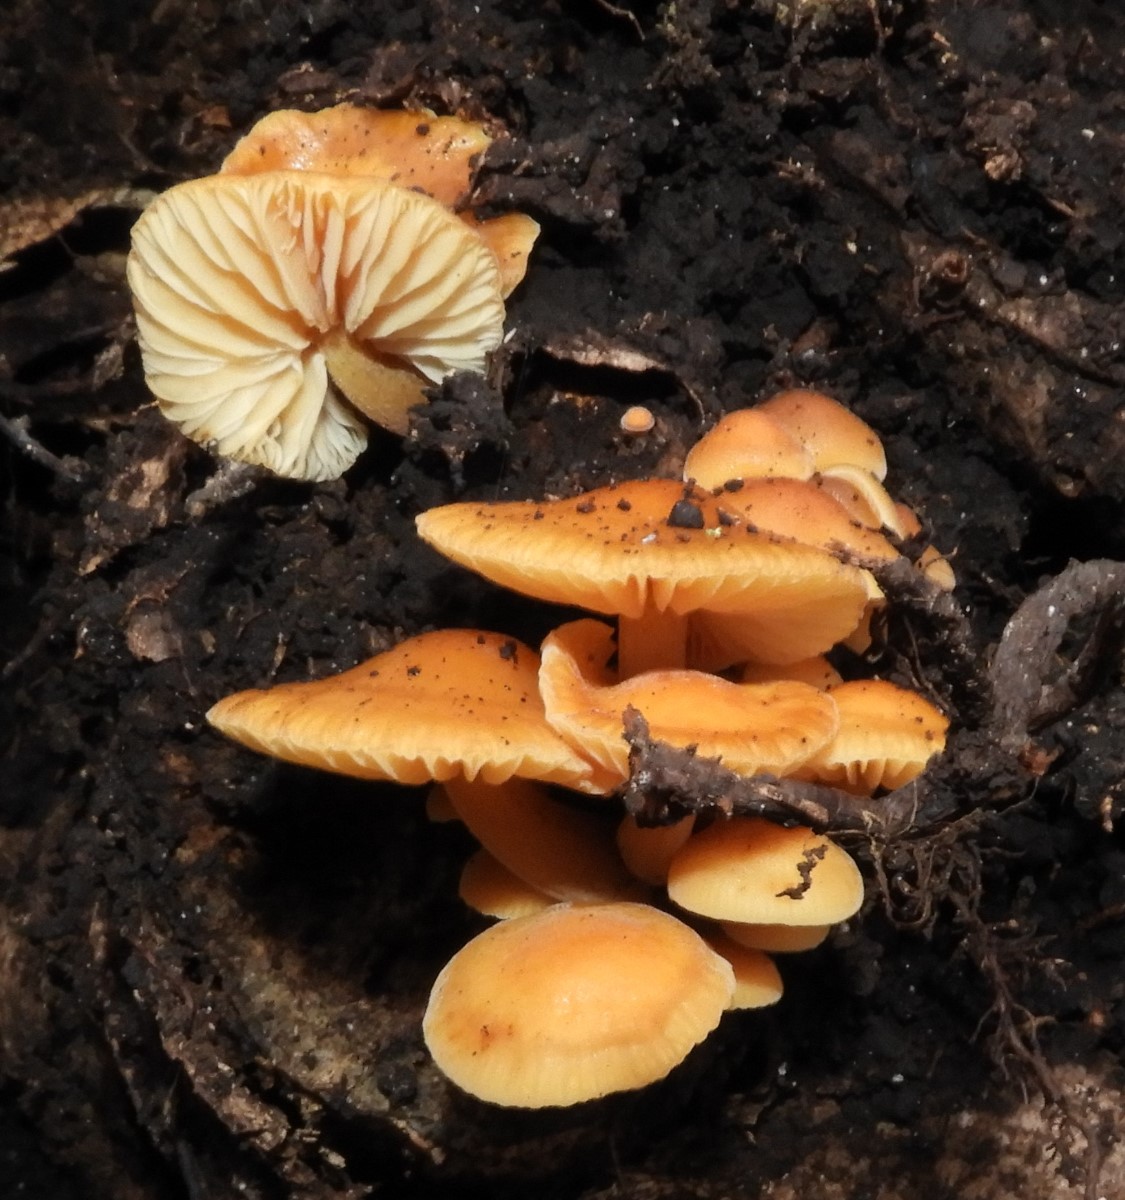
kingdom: Fungi
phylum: Basidiomycota
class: Agaricomycetes
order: Agaricales
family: Physalacriaceae
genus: Flammulina
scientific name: Flammulina velutipes
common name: gul fløjlsfod
